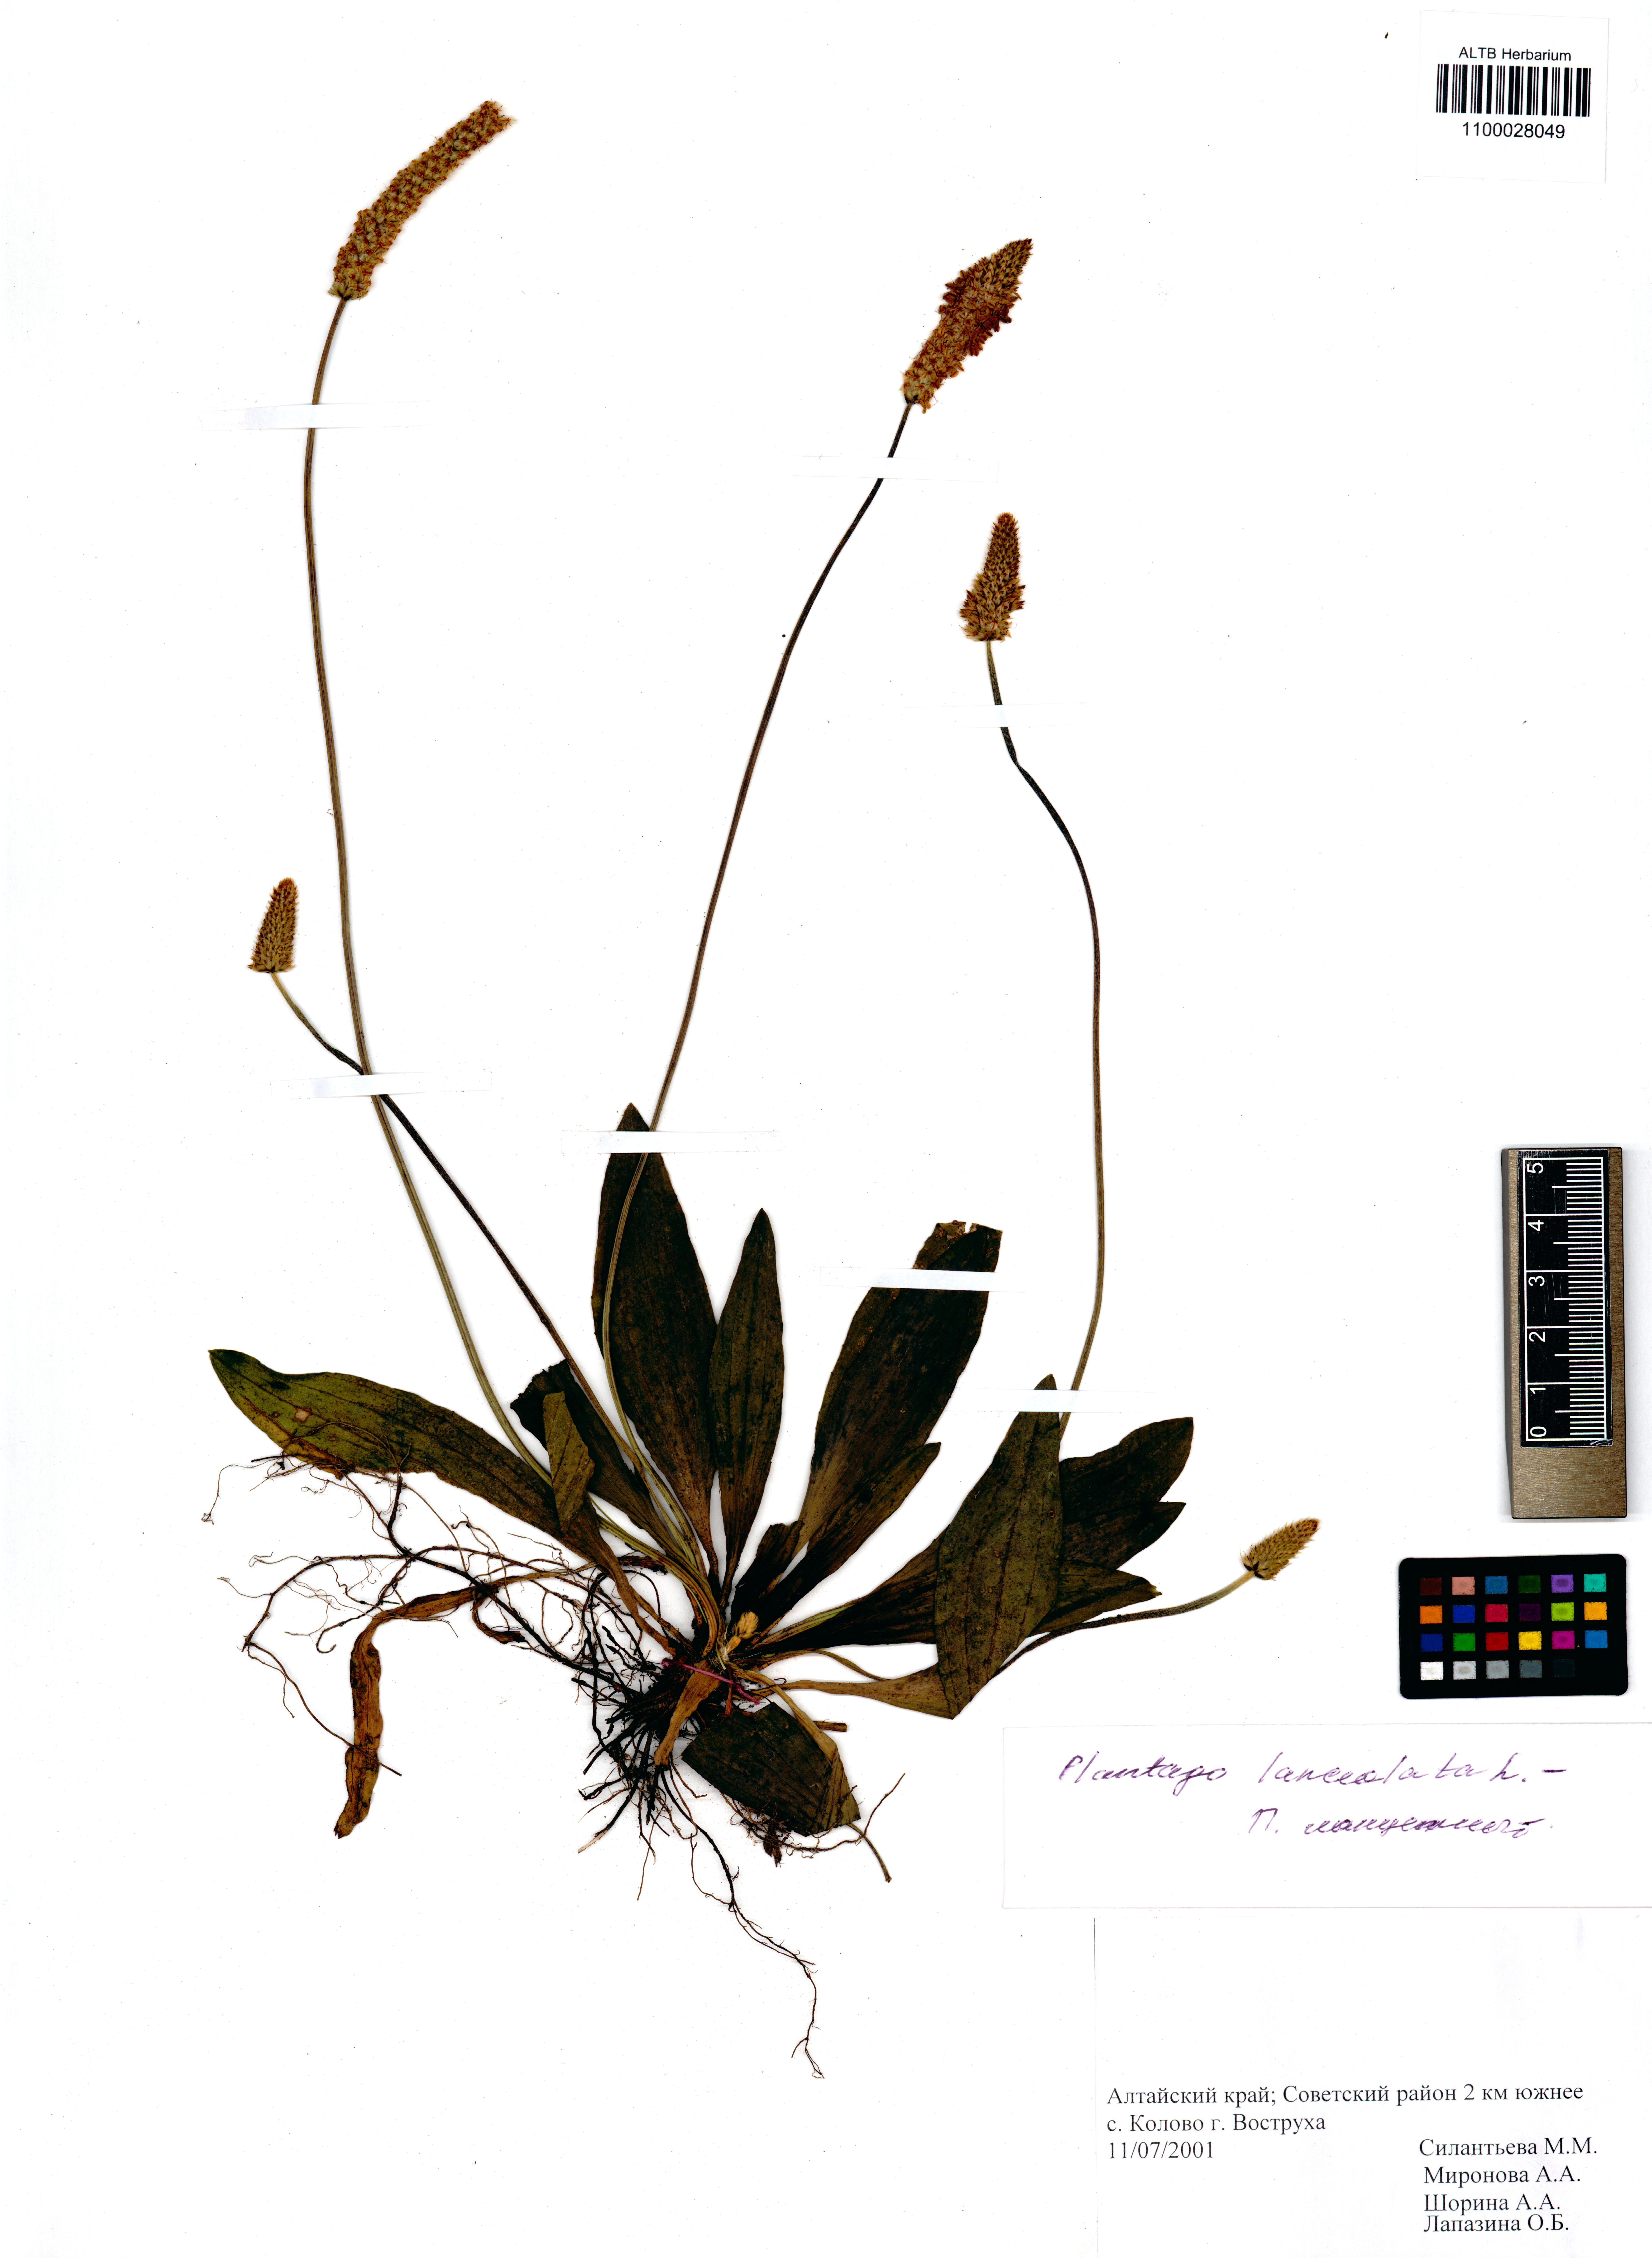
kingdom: Plantae
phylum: Tracheophyta
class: Magnoliopsida
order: Lamiales
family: Plantaginaceae
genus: Plantago
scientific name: Plantago lanceolata
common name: Ribwort plantain
